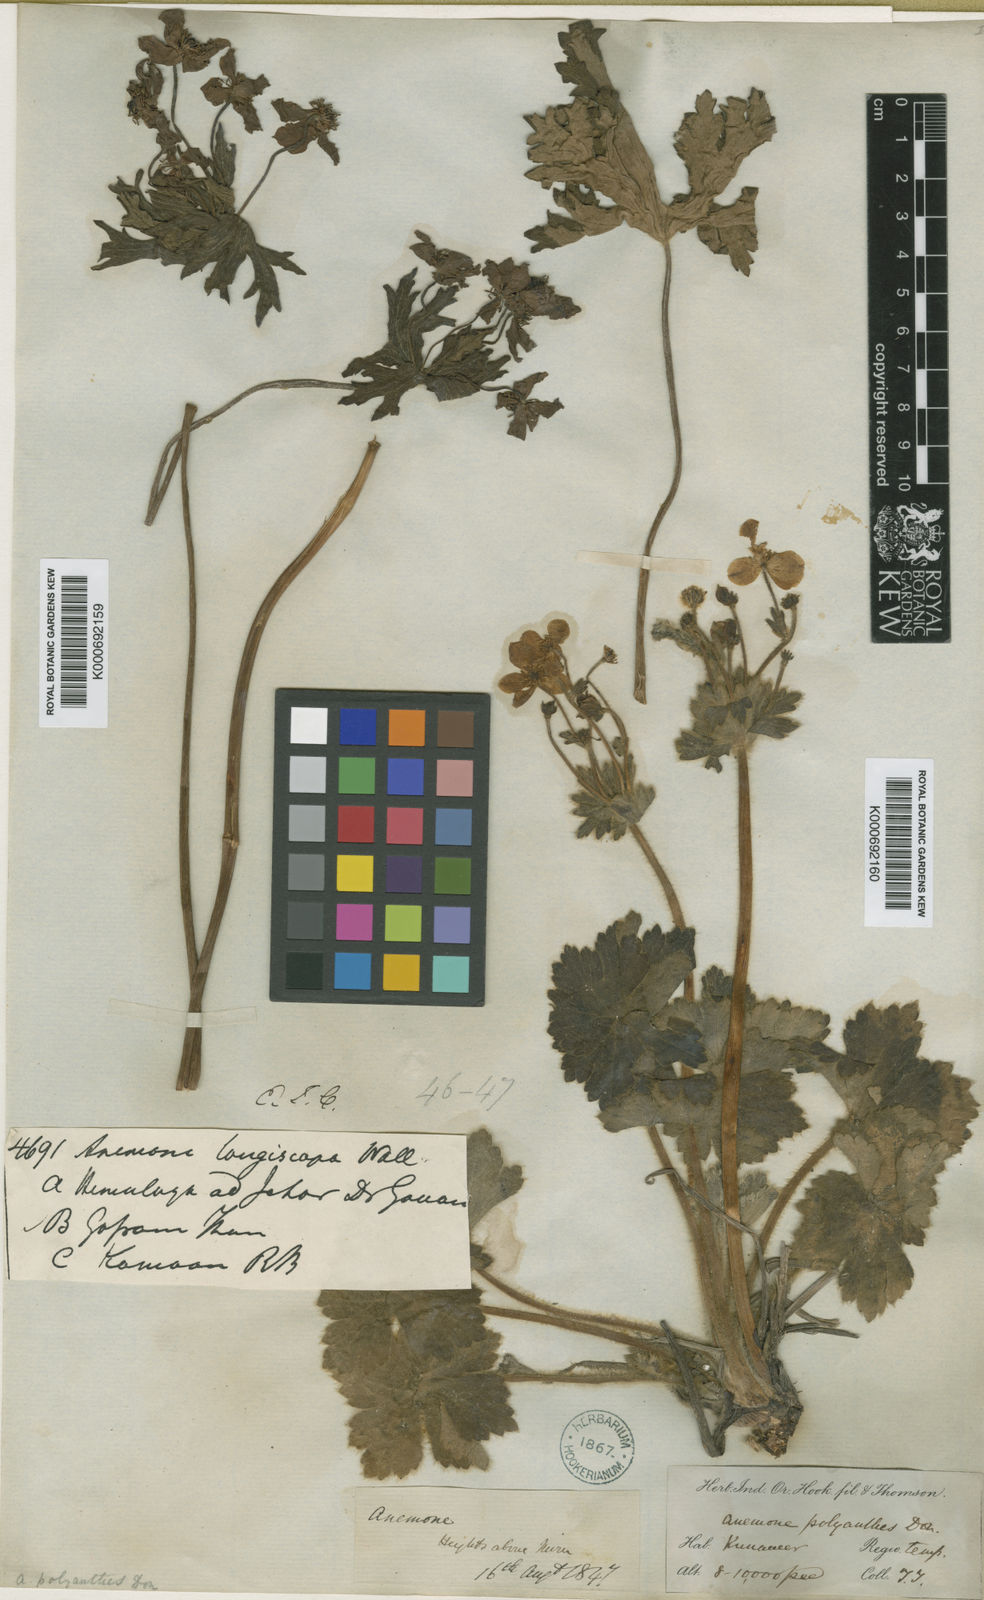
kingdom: Plantae
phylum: Tracheophyta
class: Magnoliopsida
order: Ranunculales
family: Ranunculaceae
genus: Anemonastrum
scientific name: Anemonastrum polyanthes
